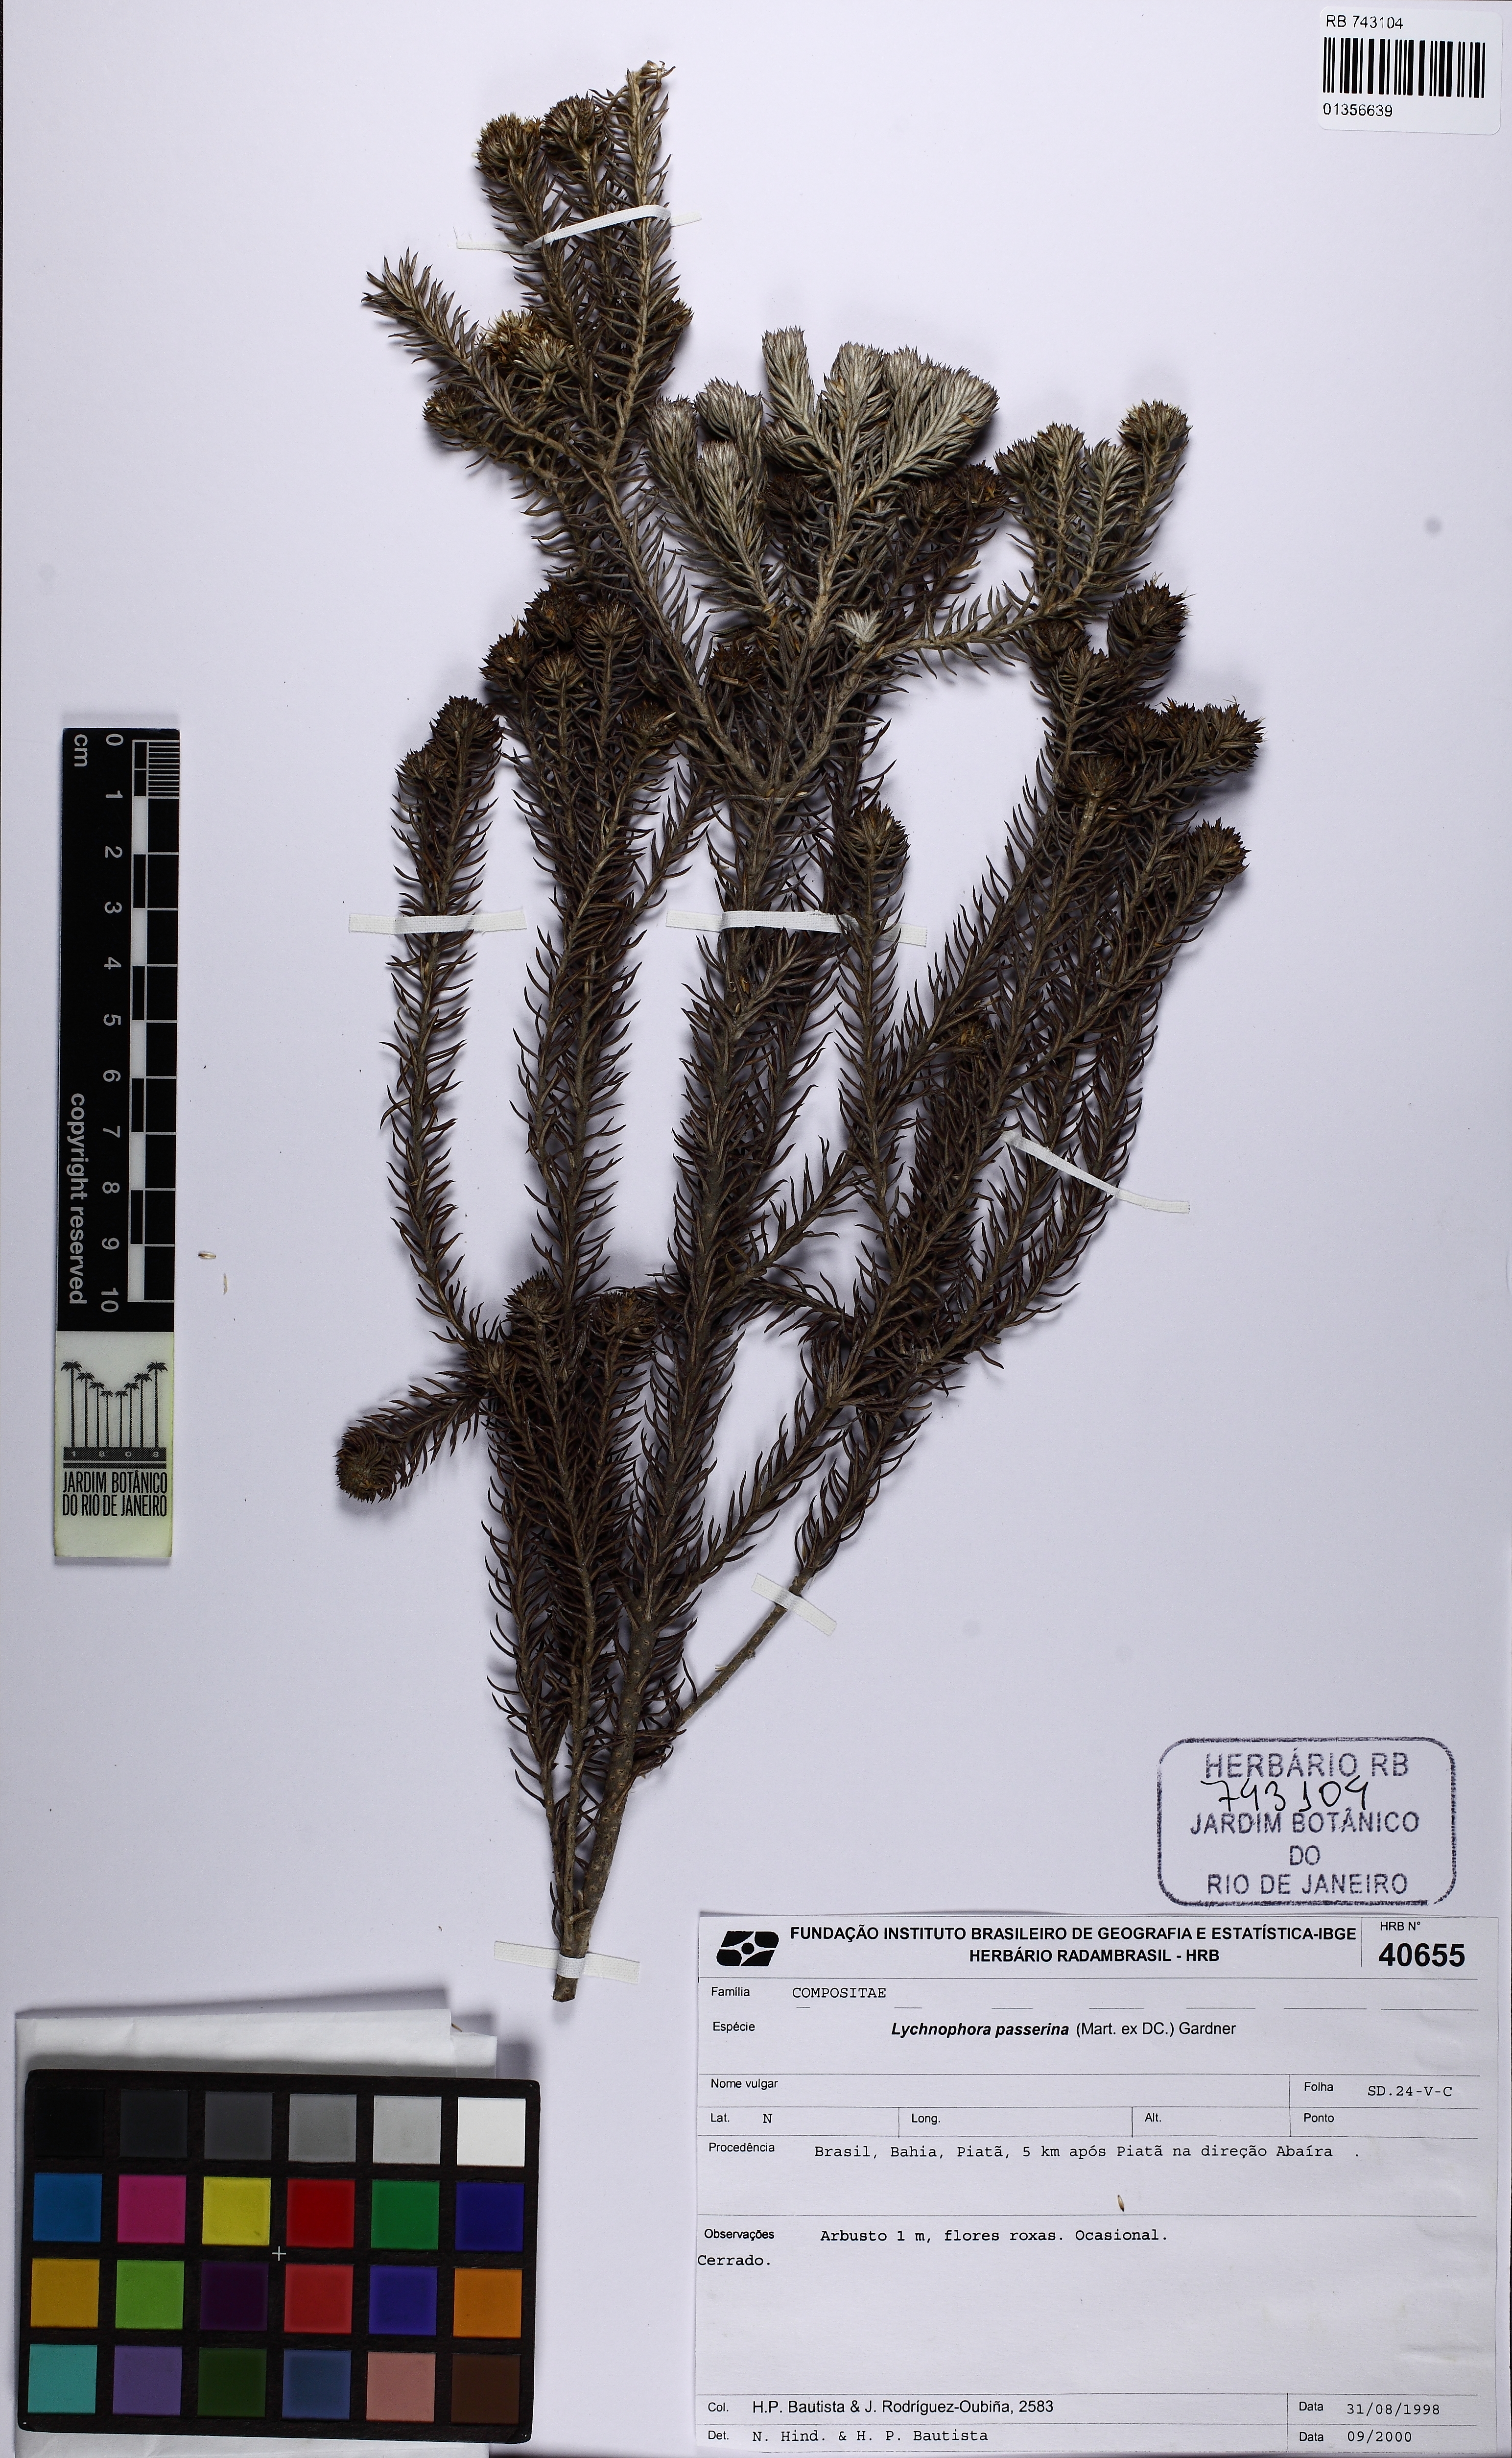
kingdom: Plantae
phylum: Tracheophyta
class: Magnoliopsida
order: Asterales
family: Asteraceae
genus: Lychnophora
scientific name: Lychnophora passerina
